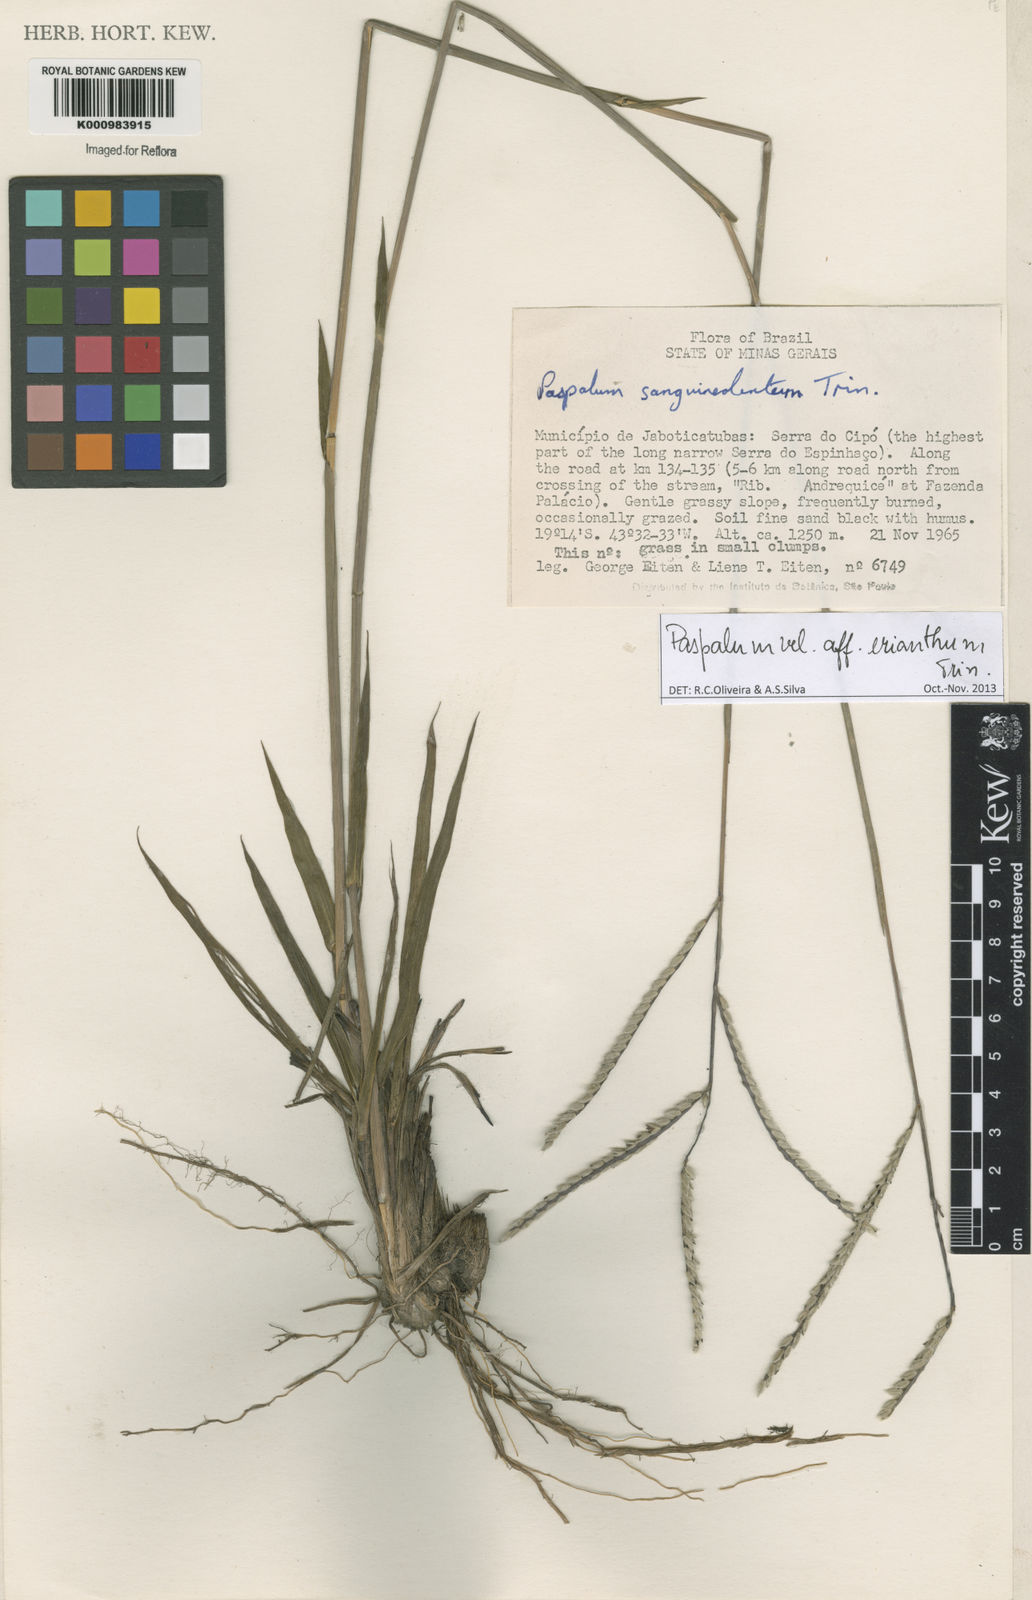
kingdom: Plantae
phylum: Tracheophyta
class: Liliopsida
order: Poales
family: Poaceae
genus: Paspalum
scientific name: Paspalum erianthum
